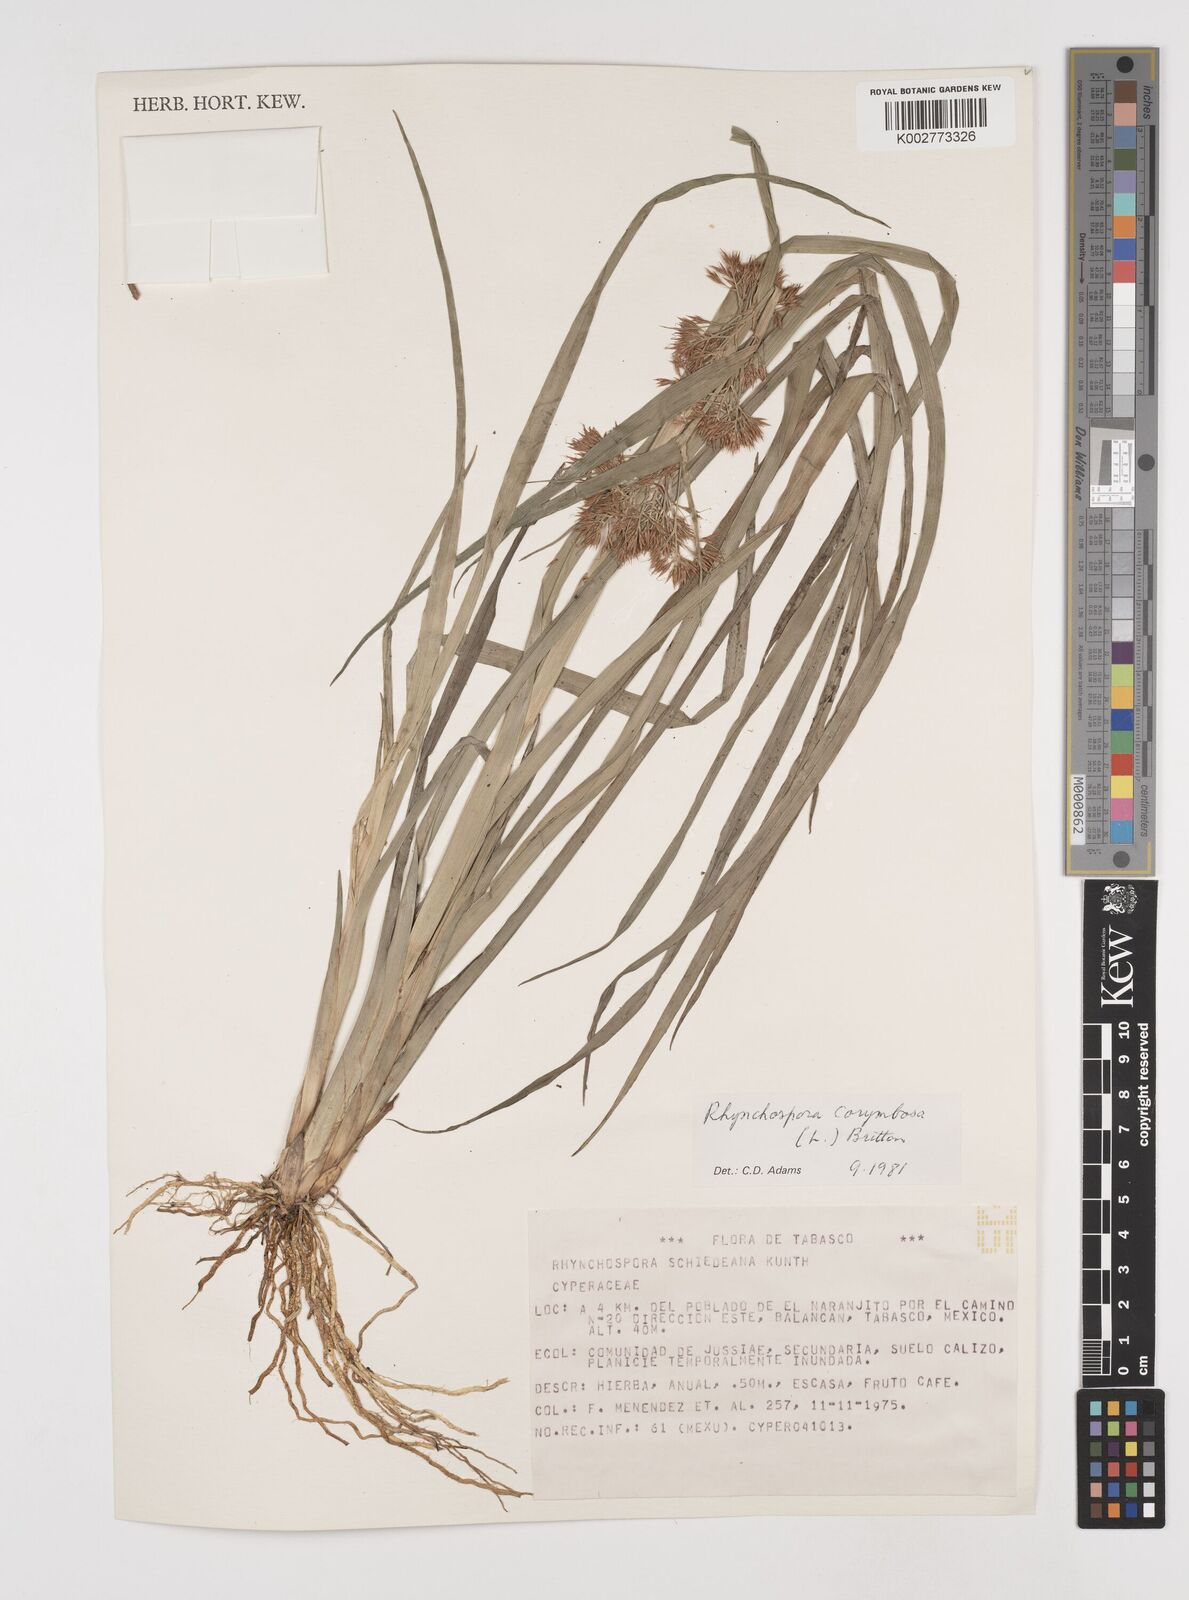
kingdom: Plantae
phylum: Tracheophyta
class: Liliopsida
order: Poales
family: Cyperaceae
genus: Rhynchospora
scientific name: Rhynchospora corymbosa
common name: Golden beak sedge
